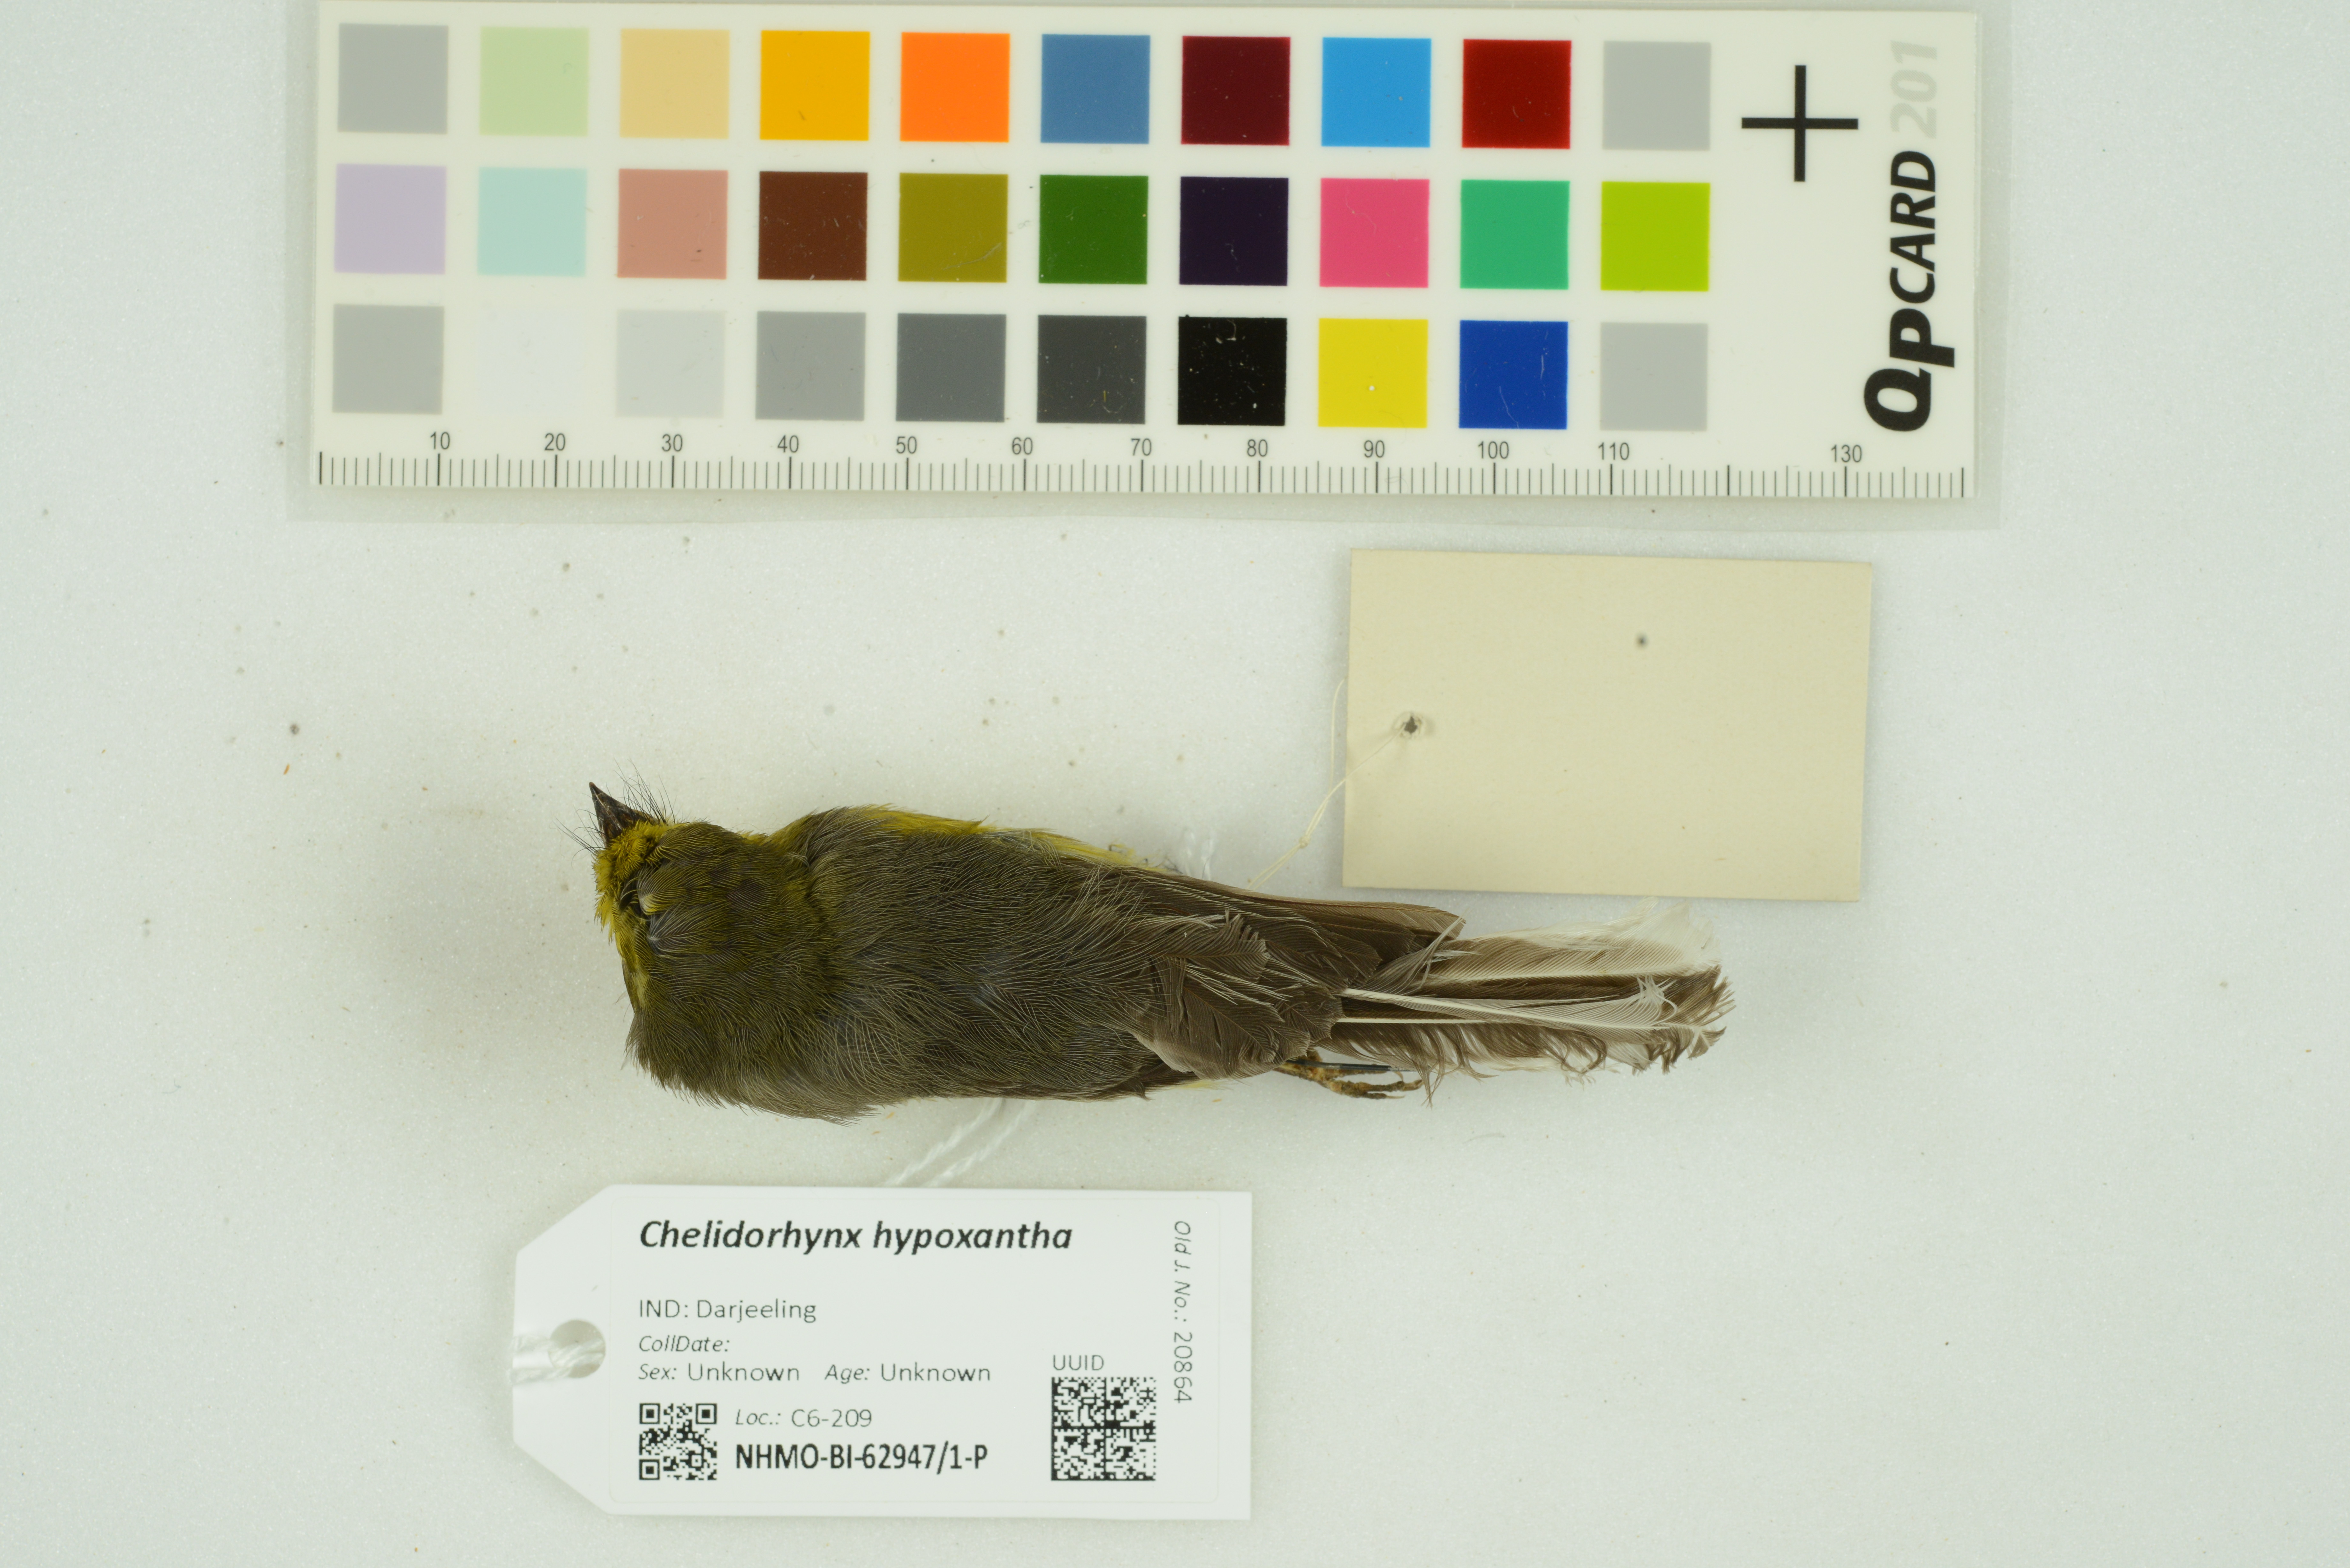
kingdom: Animalia
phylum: Chordata
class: Aves
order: Passeriformes
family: Stenostiridae
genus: Chelidorhynx
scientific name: Chelidorhynx hypoxantha
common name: Yellow-bellied fantail
